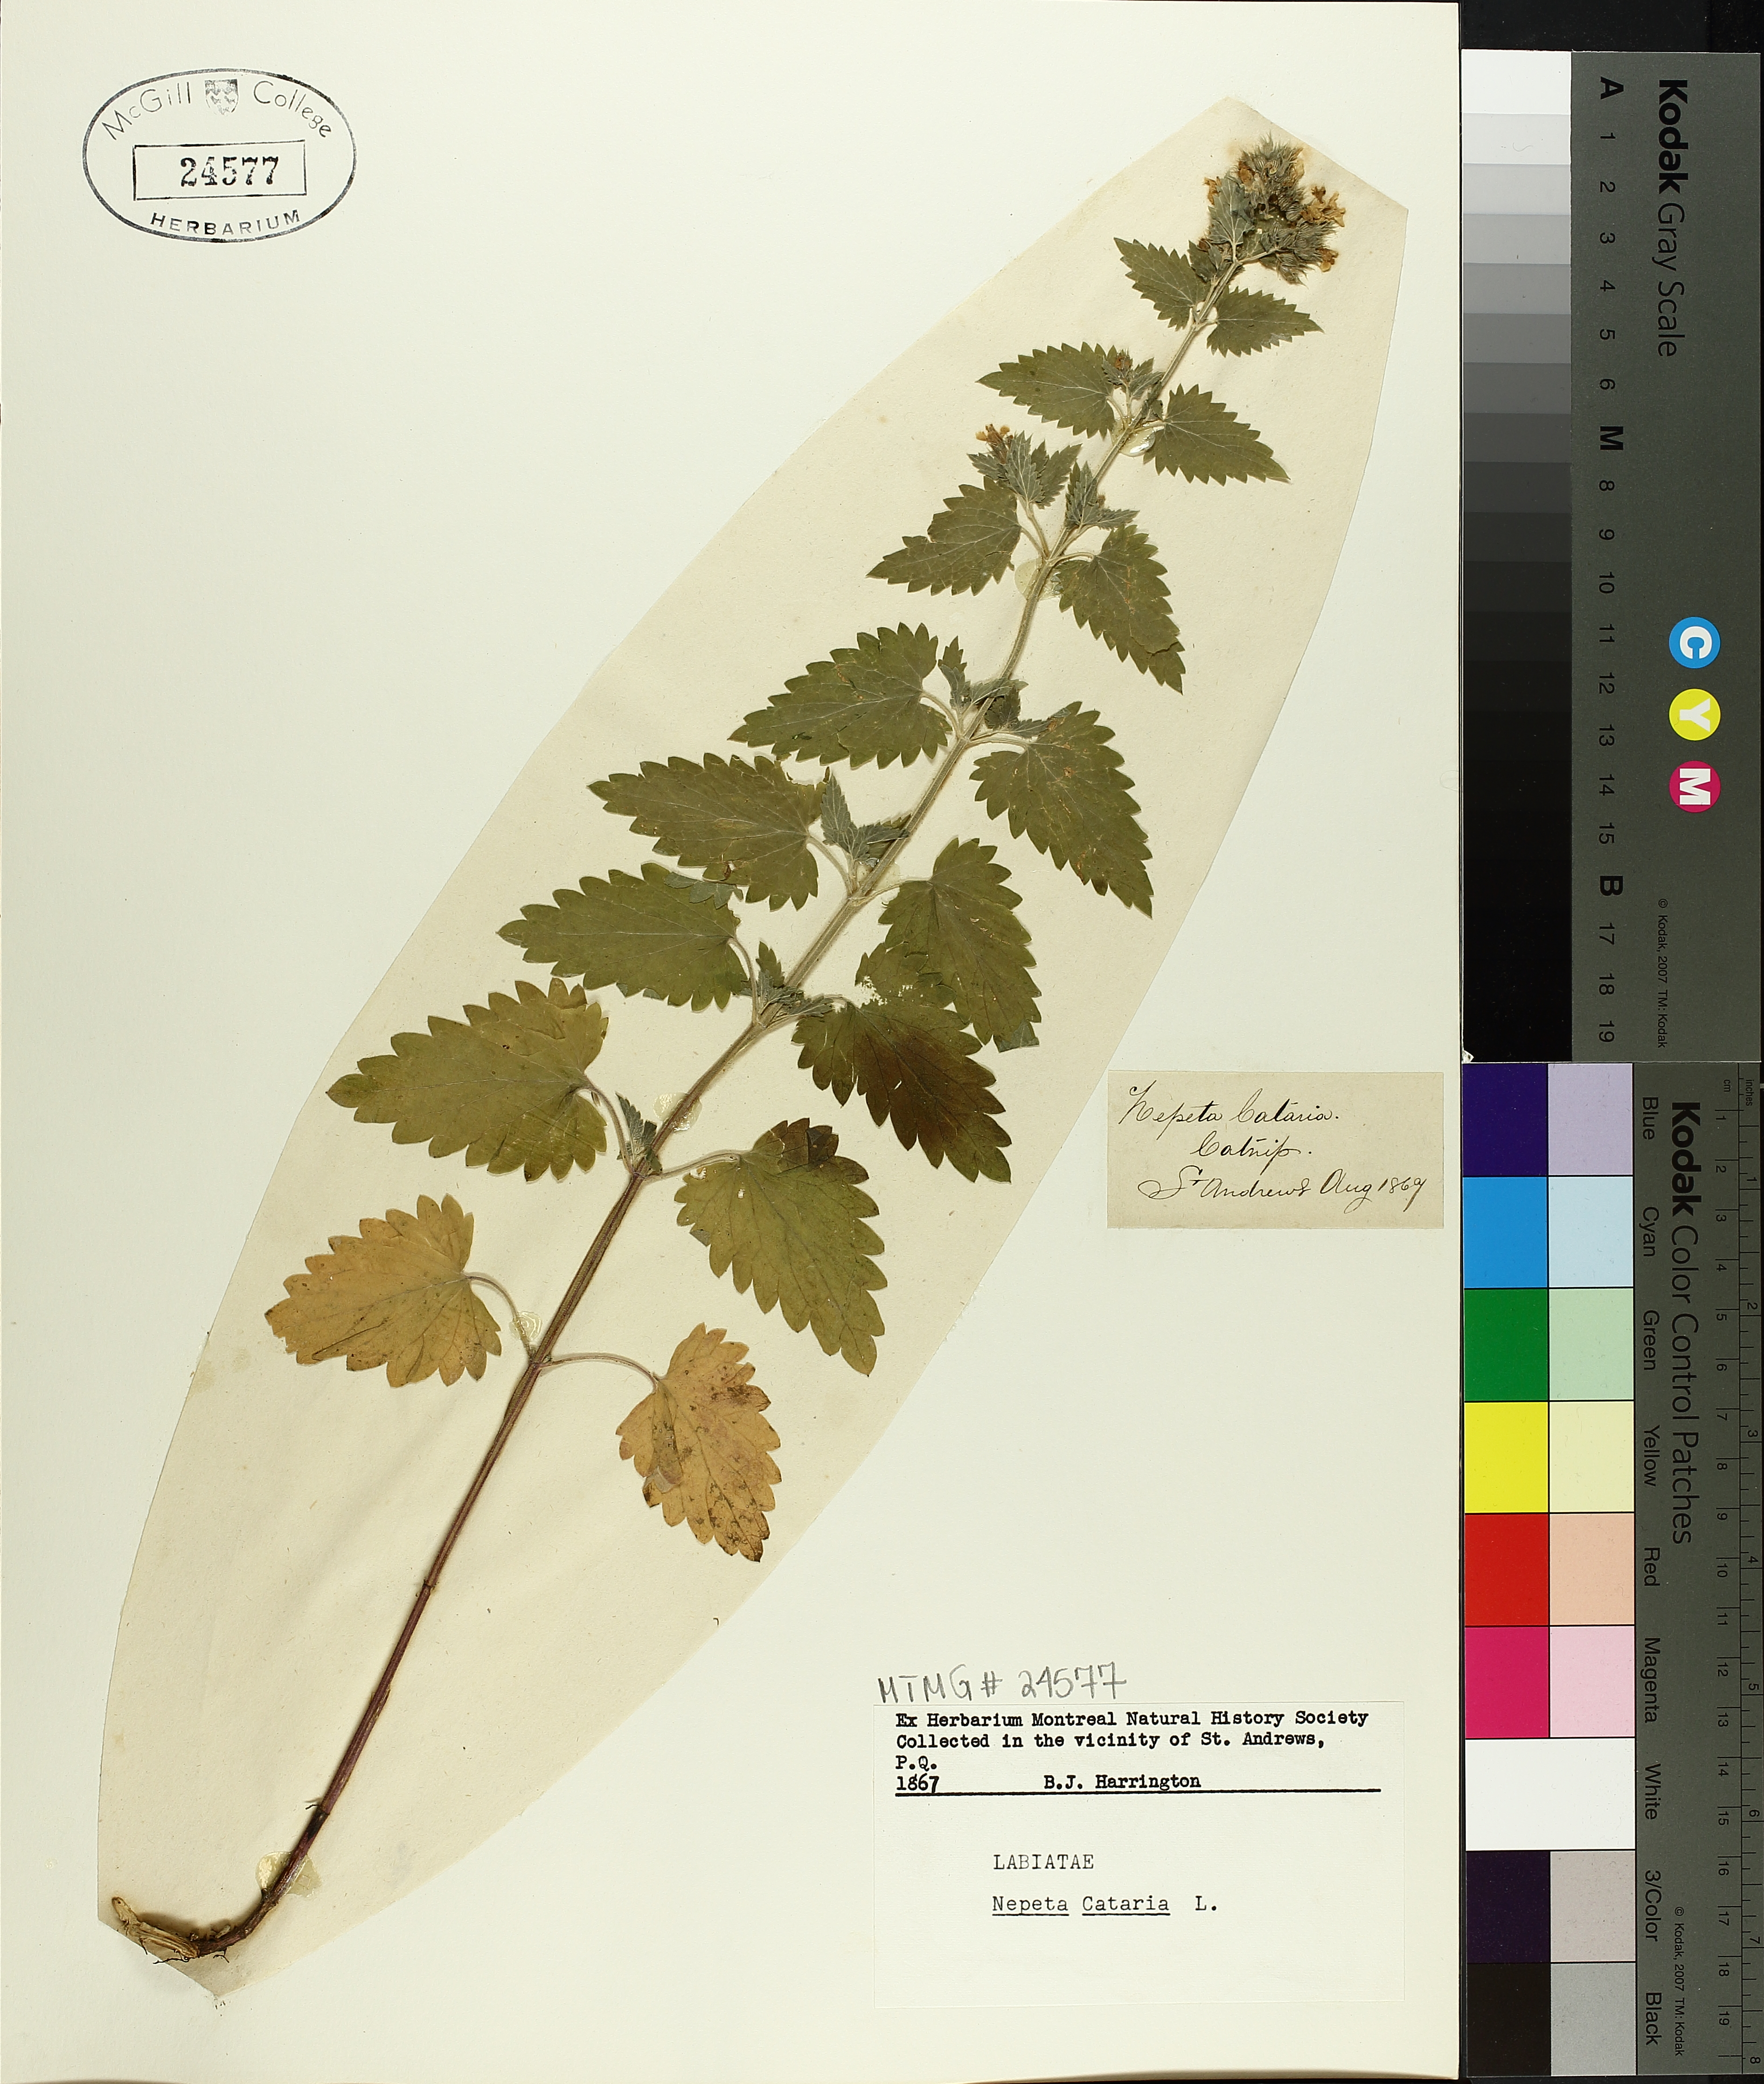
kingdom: Plantae
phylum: Tracheophyta
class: Magnoliopsida
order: Lamiales
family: Lamiaceae
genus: Nepeta
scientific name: Nepeta cataria
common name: Catnip
